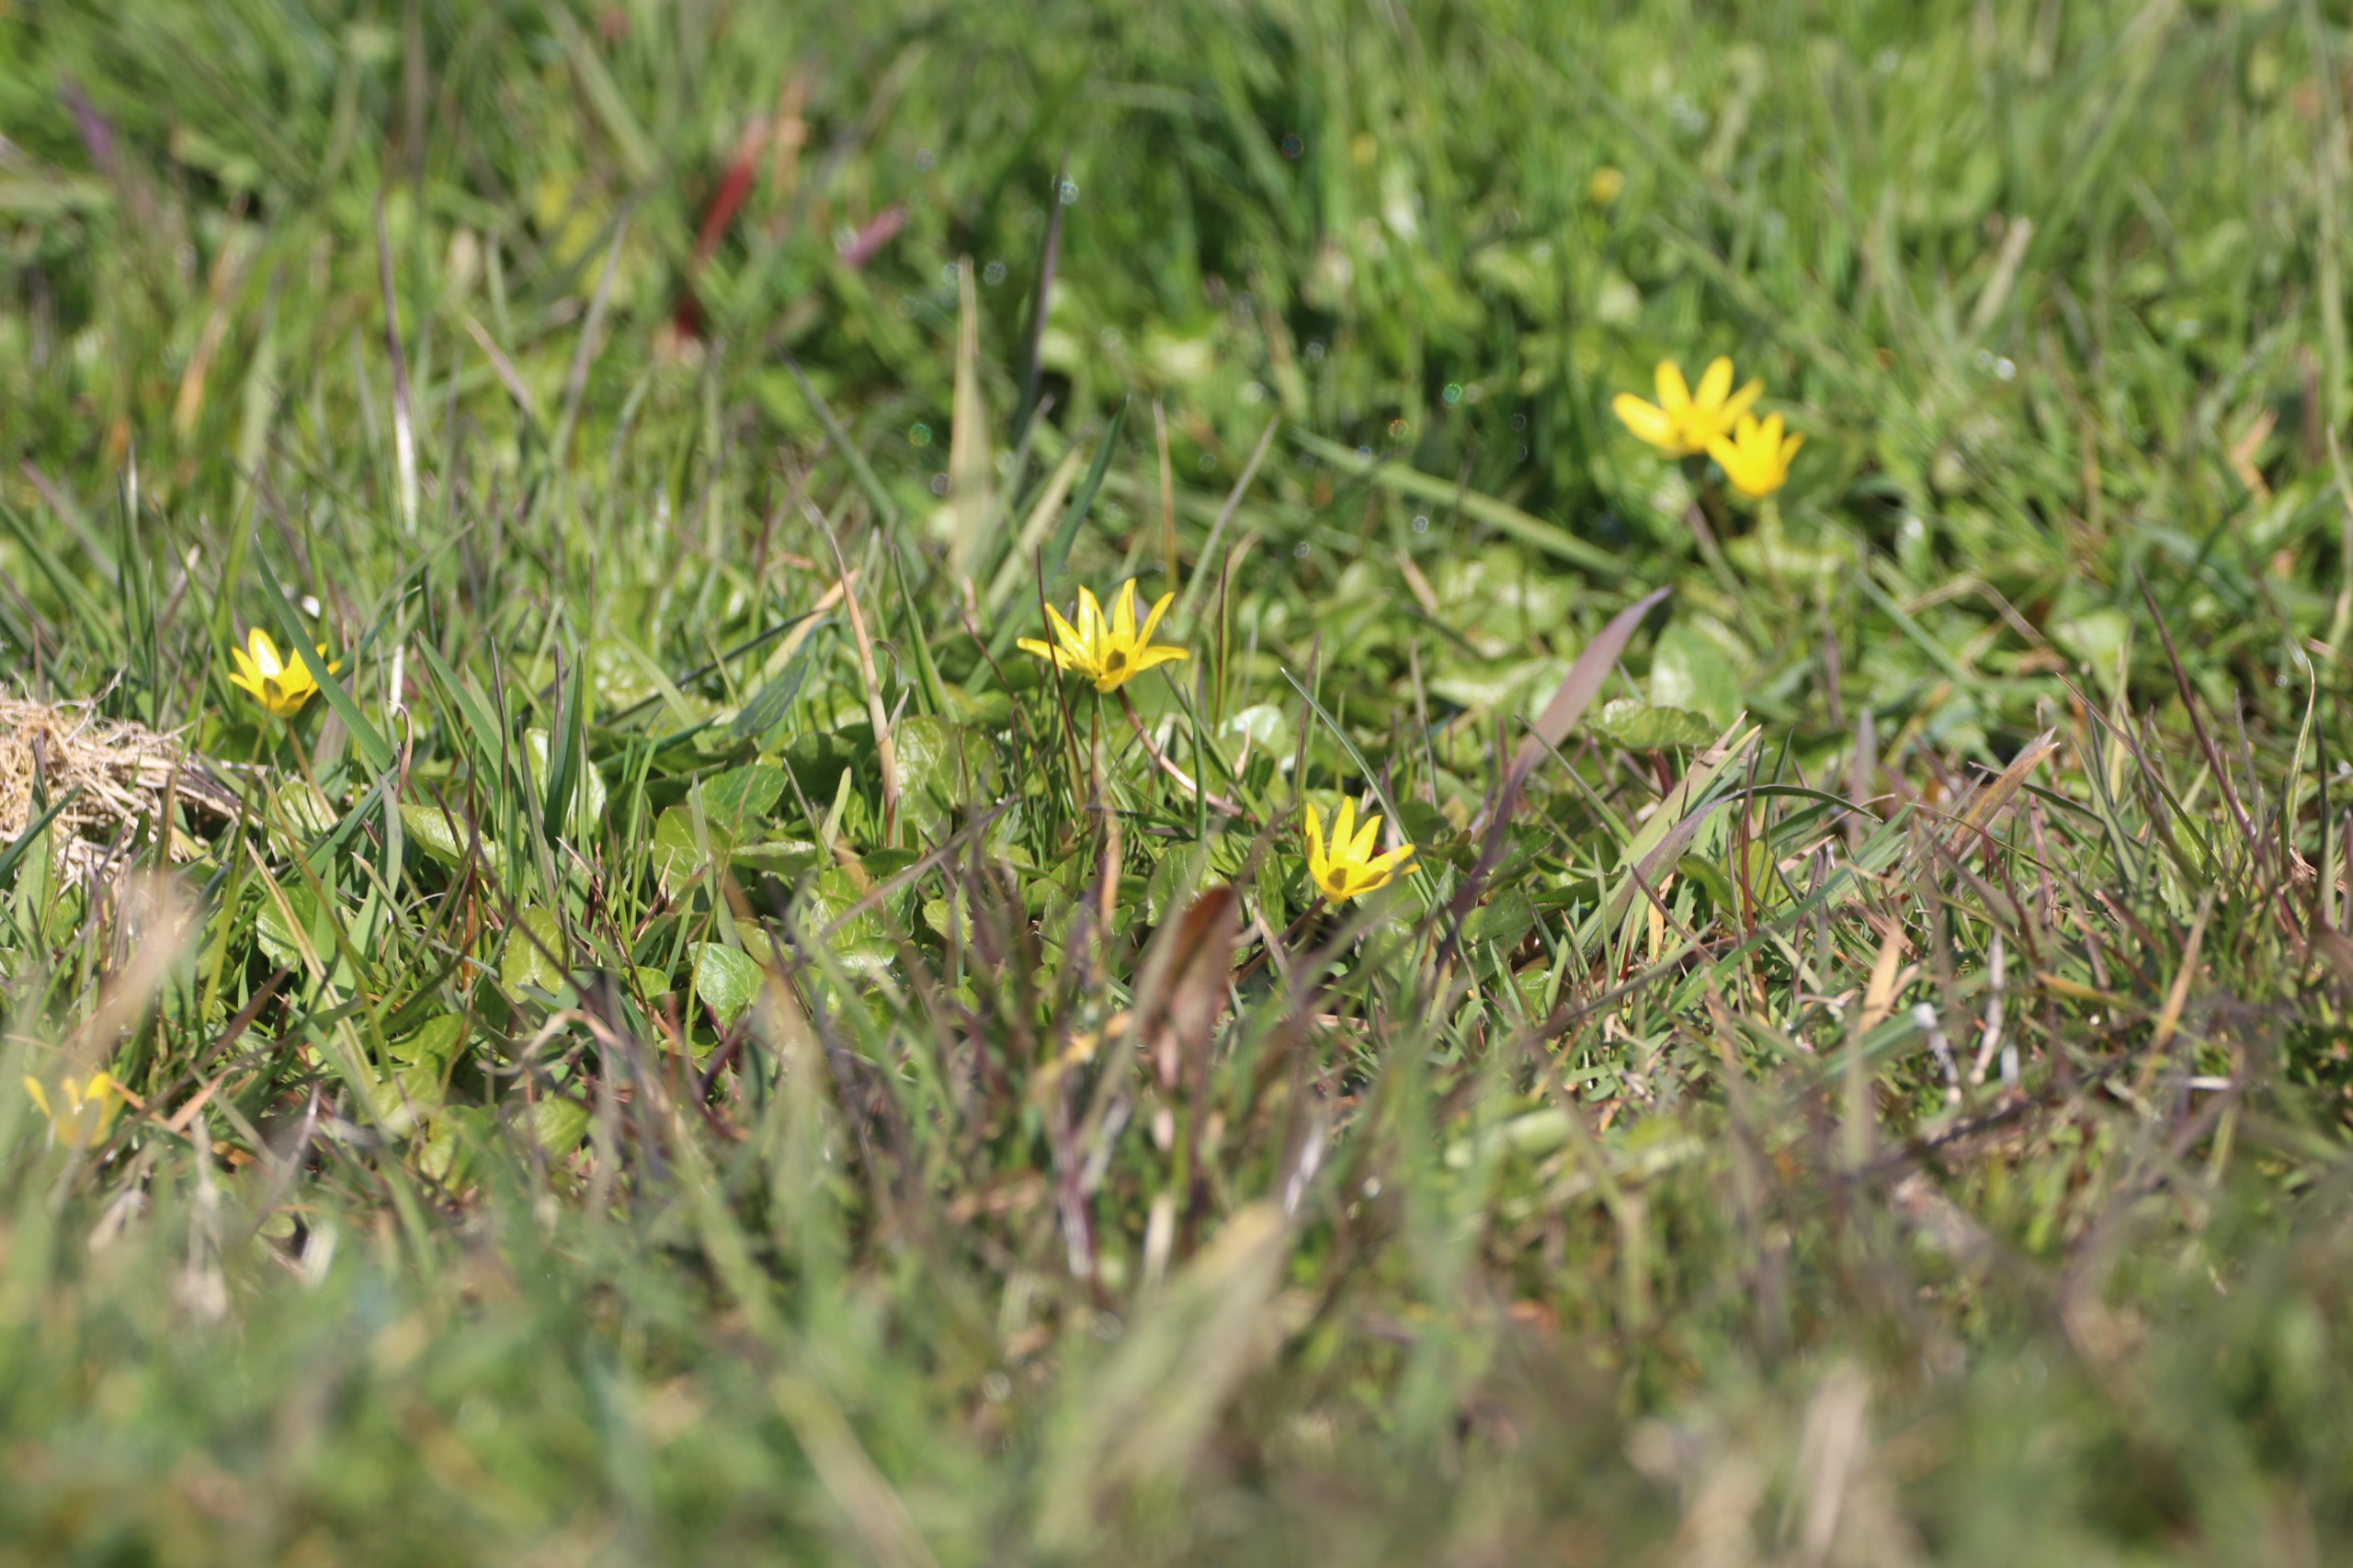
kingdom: Plantae
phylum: Tracheophyta
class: Magnoliopsida
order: Ranunculales
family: Ranunculaceae
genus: Ficaria
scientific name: Ficaria verna
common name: Vorterod
